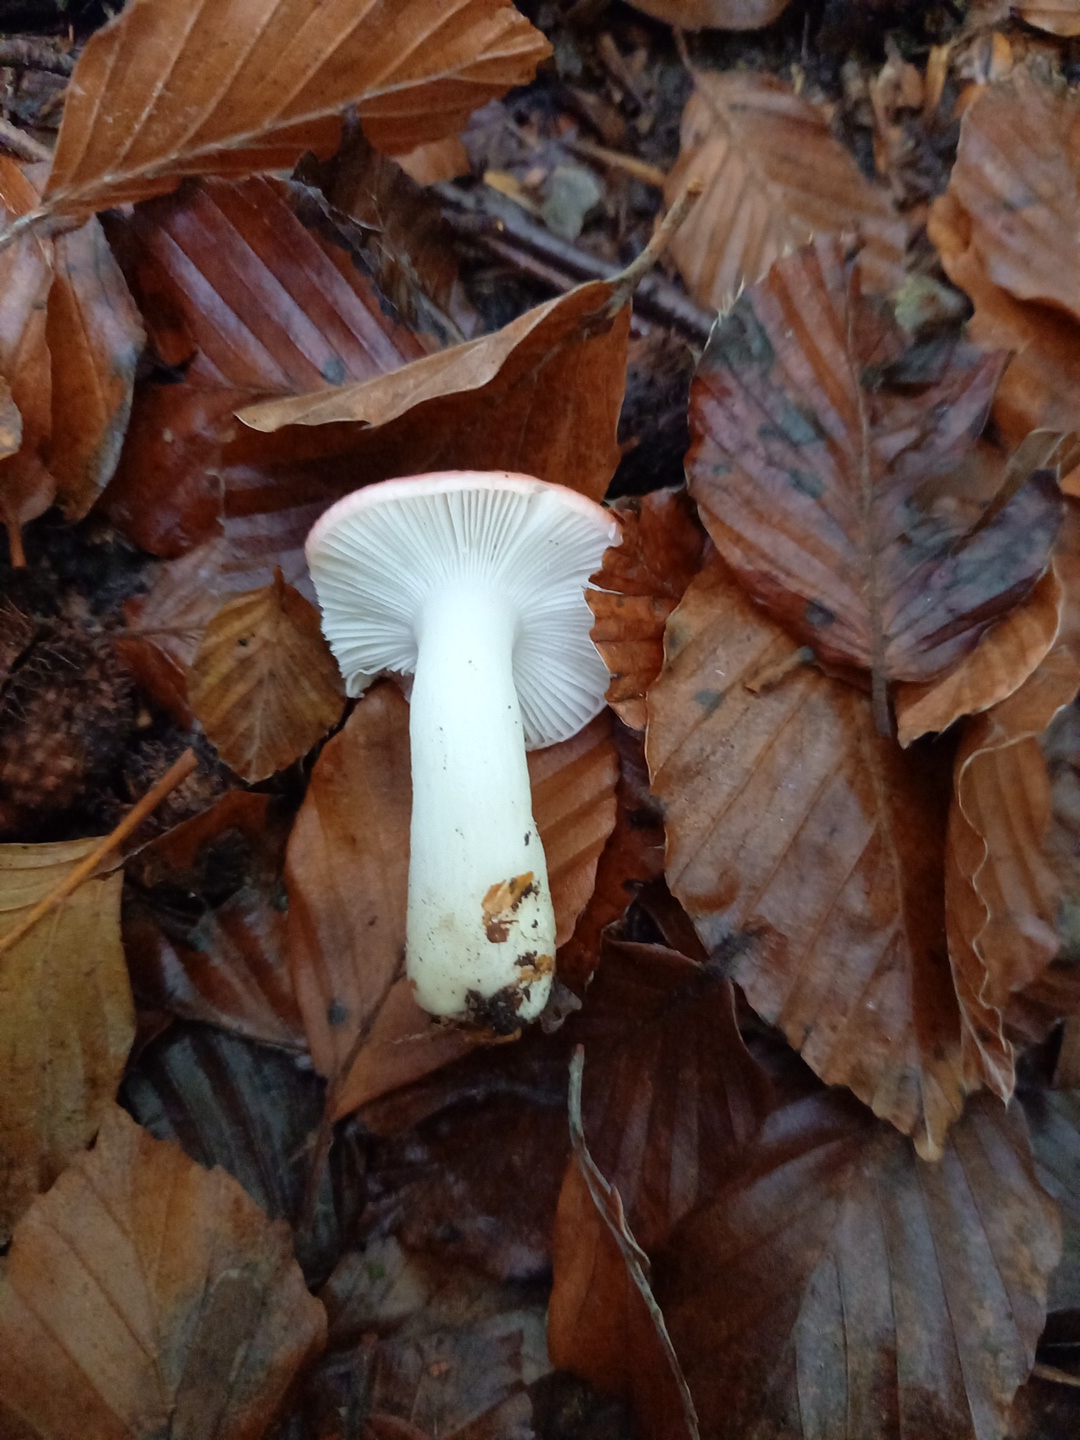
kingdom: Fungi
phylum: Basidiomycota
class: Agaricomycetes
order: Russulales
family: Russulaceae
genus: Russula
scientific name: Russula nobilis
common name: lille gift-skørhat
